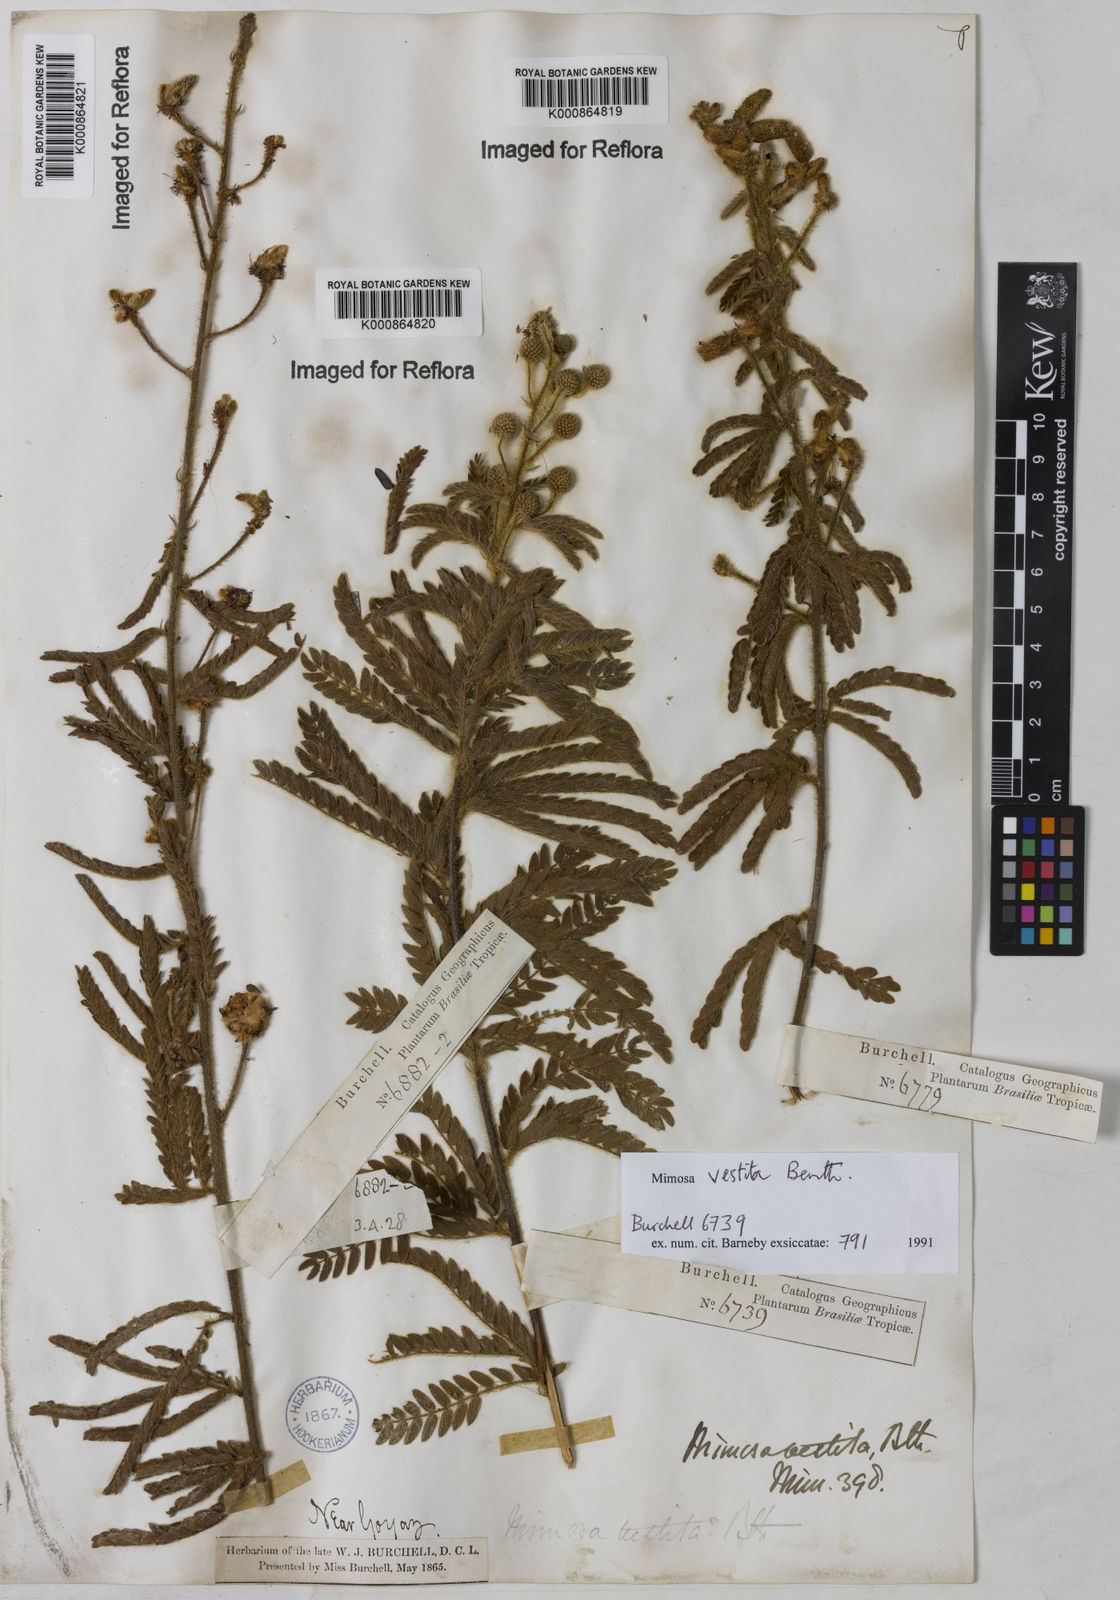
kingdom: Plantae
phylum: Tracheophyta
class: Magnoliopsida
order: Fabales
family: Fabaceae
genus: Mimosa
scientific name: Mimosa vestita
